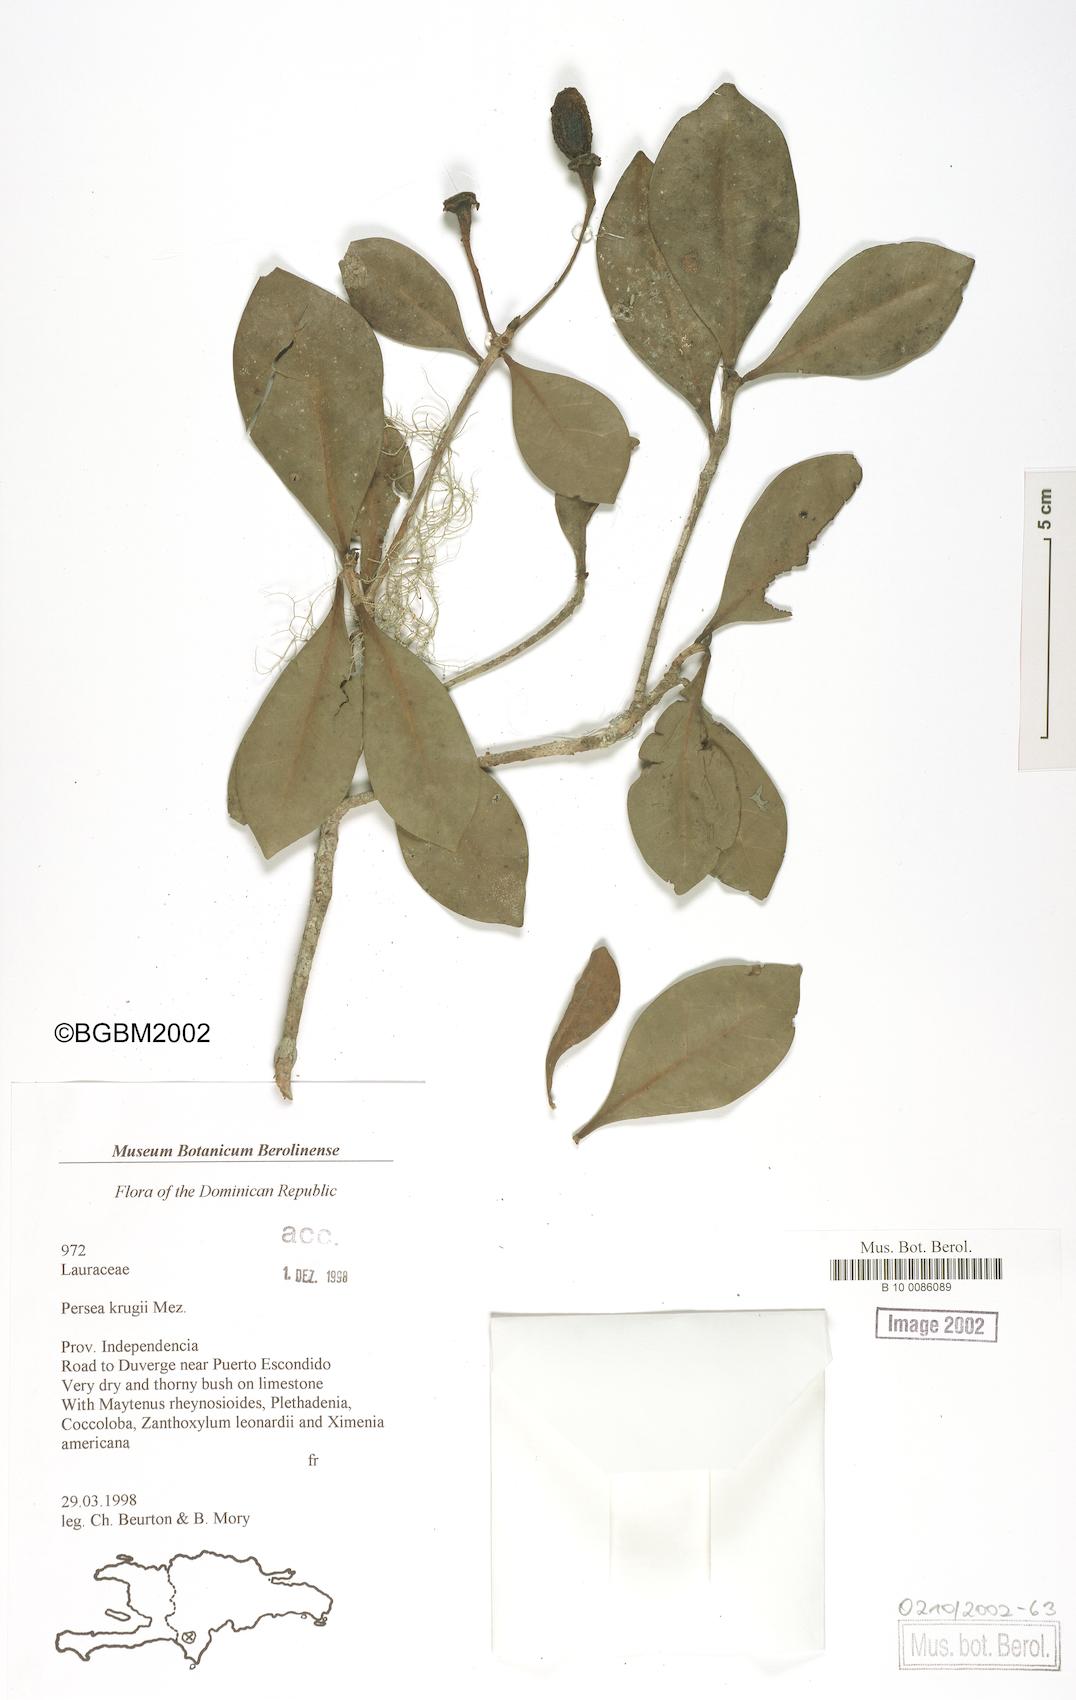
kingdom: Plantae
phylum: Tracheophyta
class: Magnoliopsida
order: Laurales
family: Lauraceae
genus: Persea
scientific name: Persea krugii
